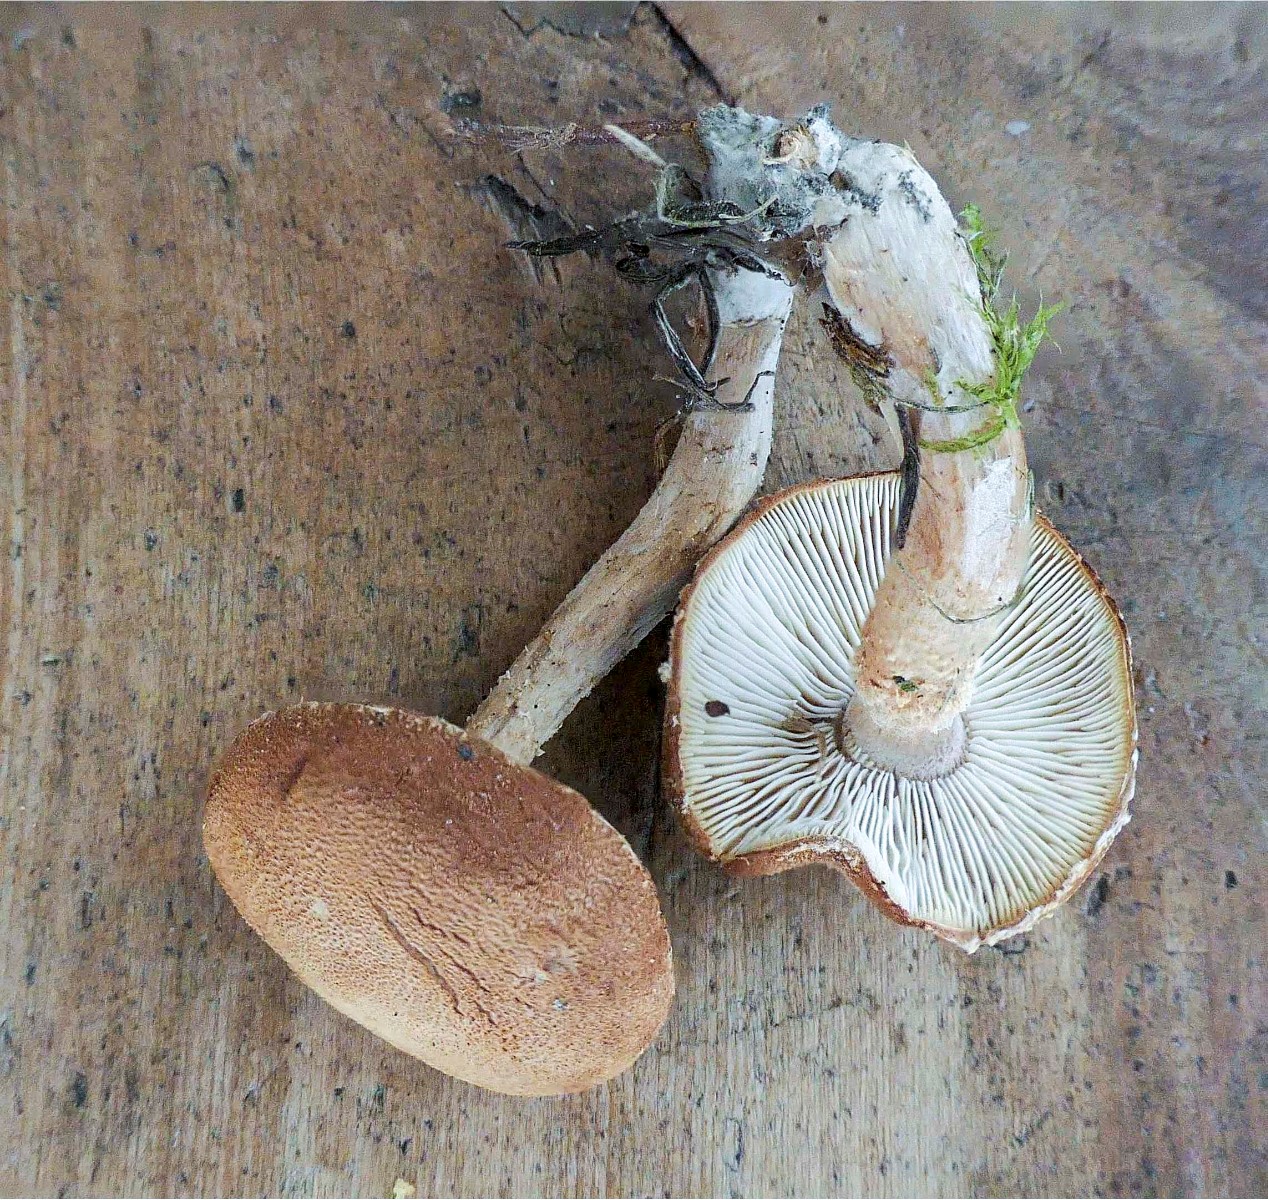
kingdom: Fungi
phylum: Basidiomycota
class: Agaricomycetes
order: Agaricales
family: Agaricaceae
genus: Cystodermella
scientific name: Cystodermella granulosa
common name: kliddet grynhat
